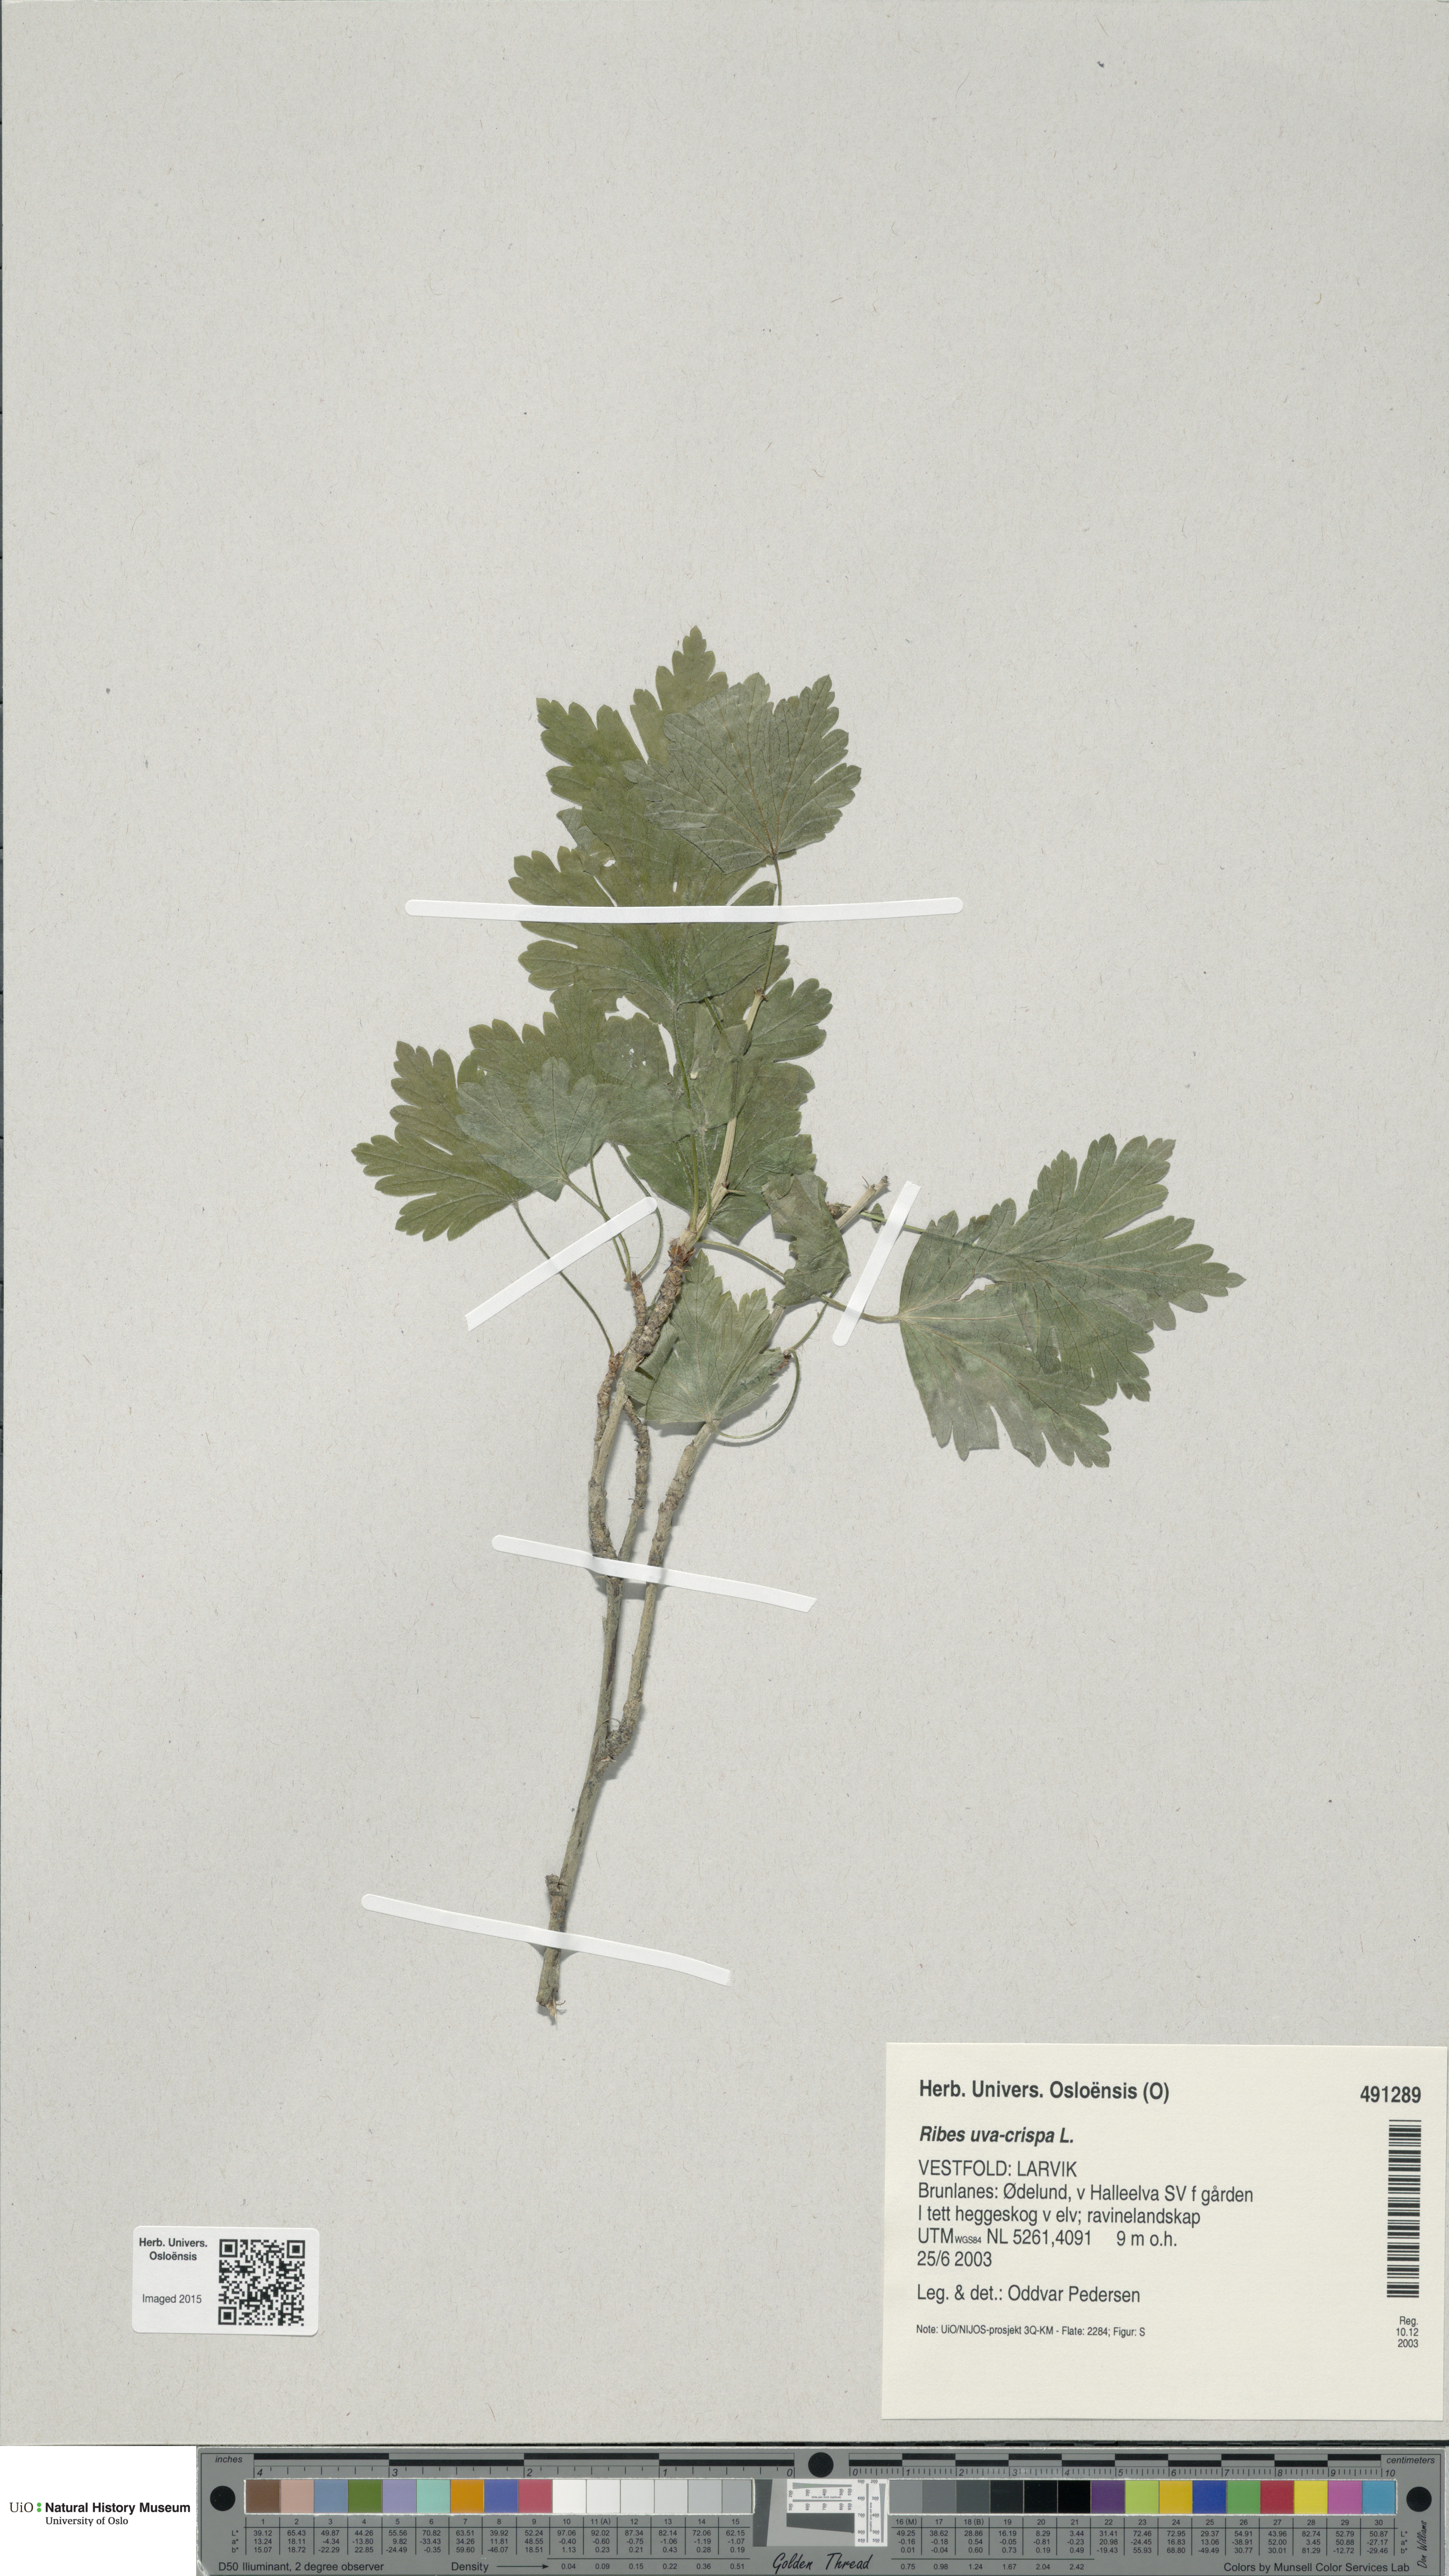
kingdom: Plantae
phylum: Tracheophyta
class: Magnoliopsida
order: Saxifragales
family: Grossulariaceae
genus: Ribes
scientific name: Ribes uva-crispa
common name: Gooseberry
